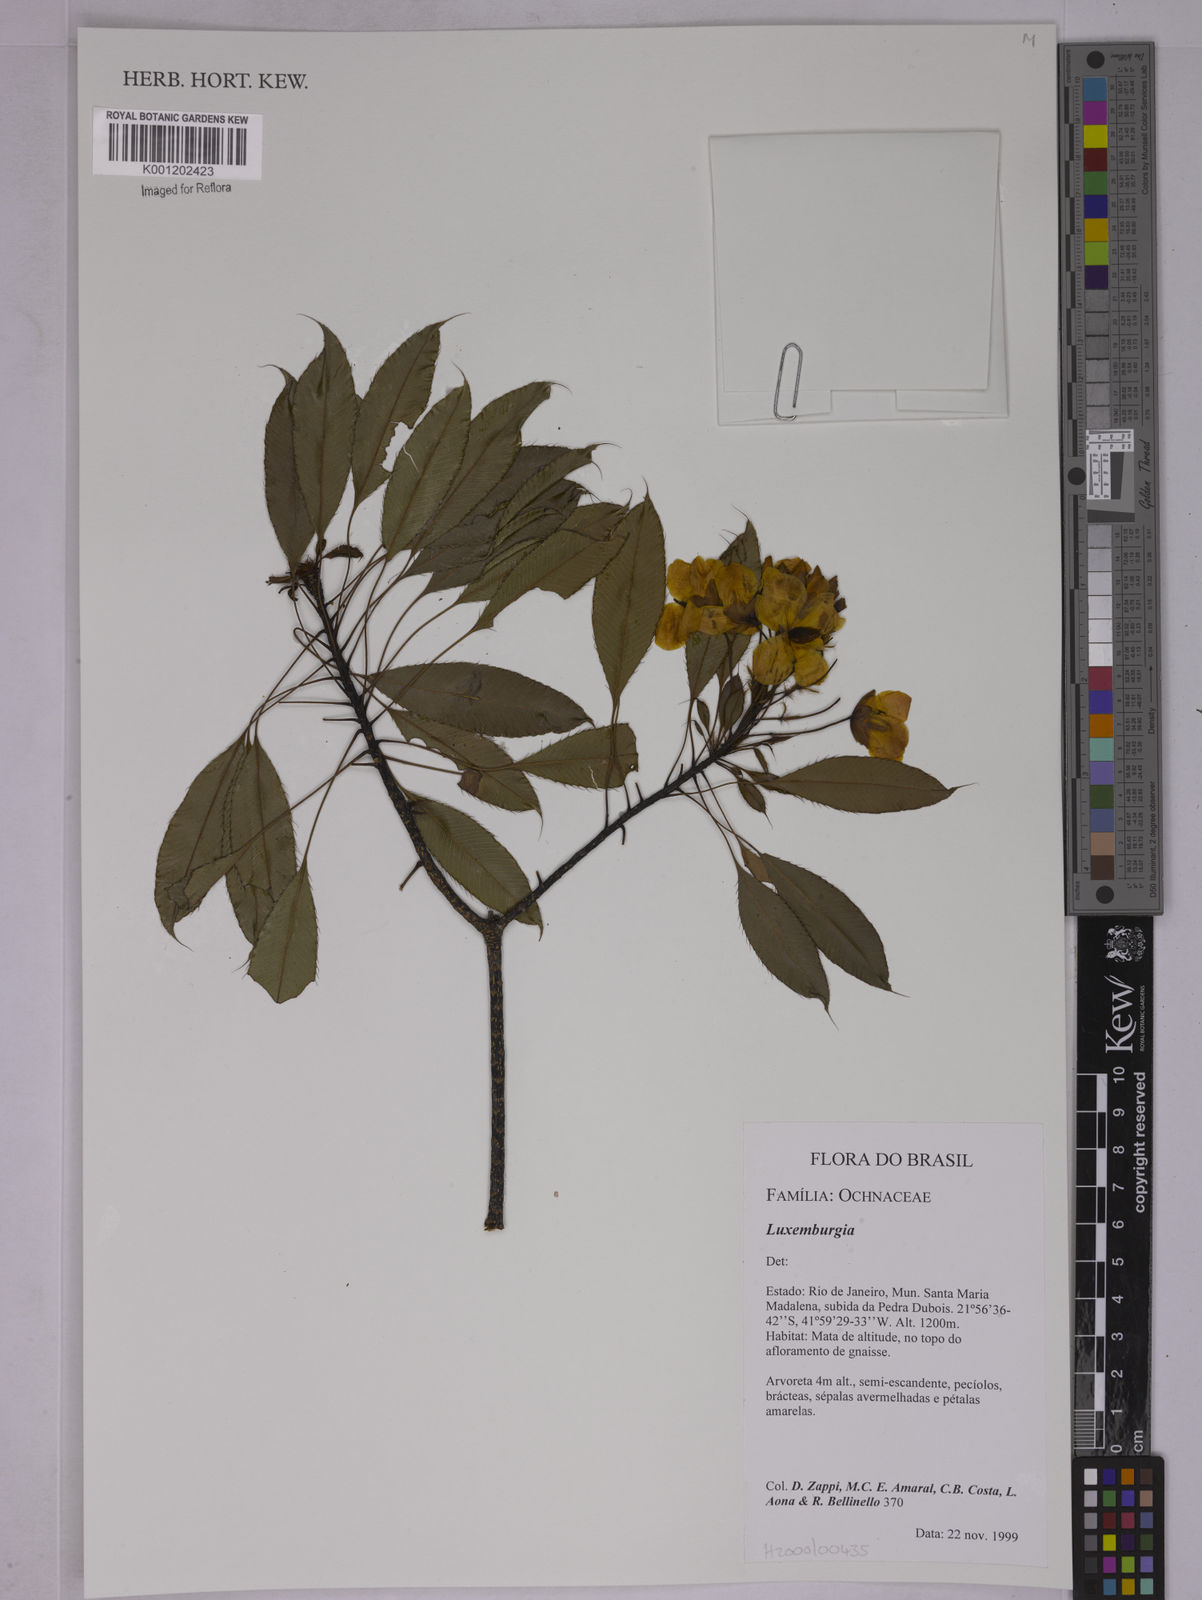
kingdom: Plantae
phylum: Tracheophyta
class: Magnoliopsida
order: Malpighiales
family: Ochnaceae
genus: Luxemburgia
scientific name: Luxemburgia
